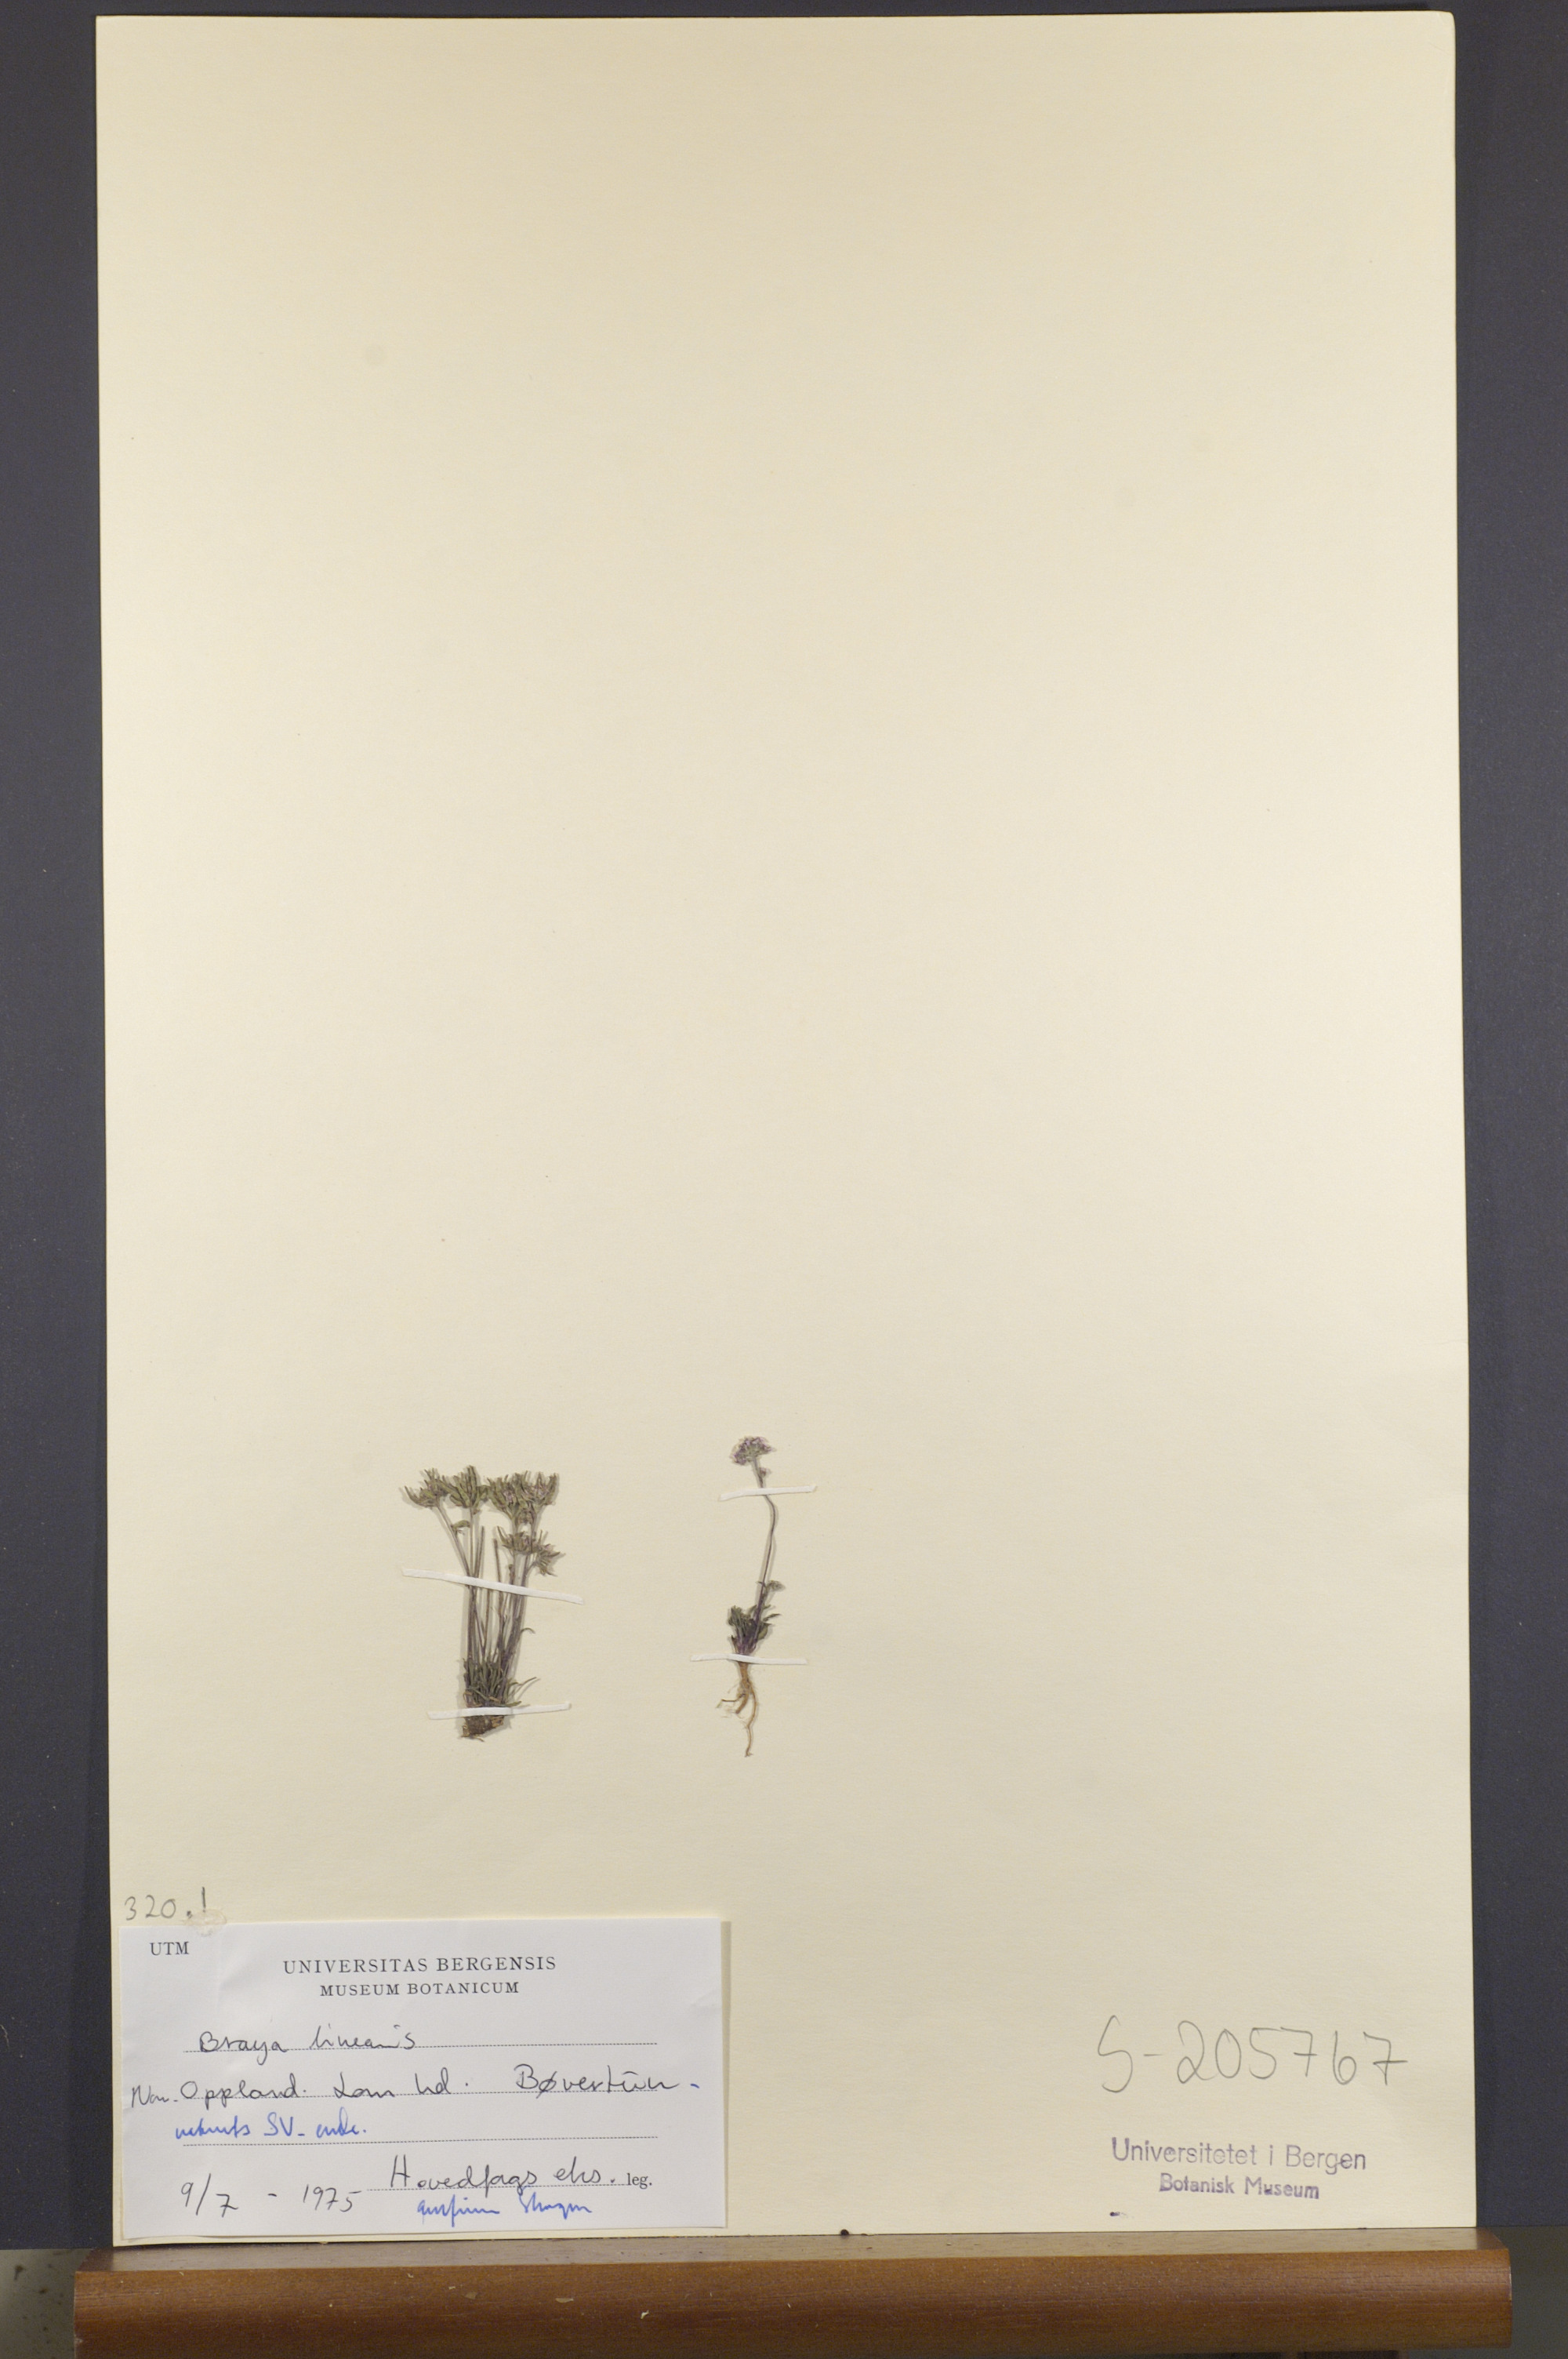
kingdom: Plantae
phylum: Tracheophyta
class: Magnoliopsida
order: Brassicales
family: Brassicaceae
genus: Braya
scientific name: Braya linearis
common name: Narrow-fruit braya
